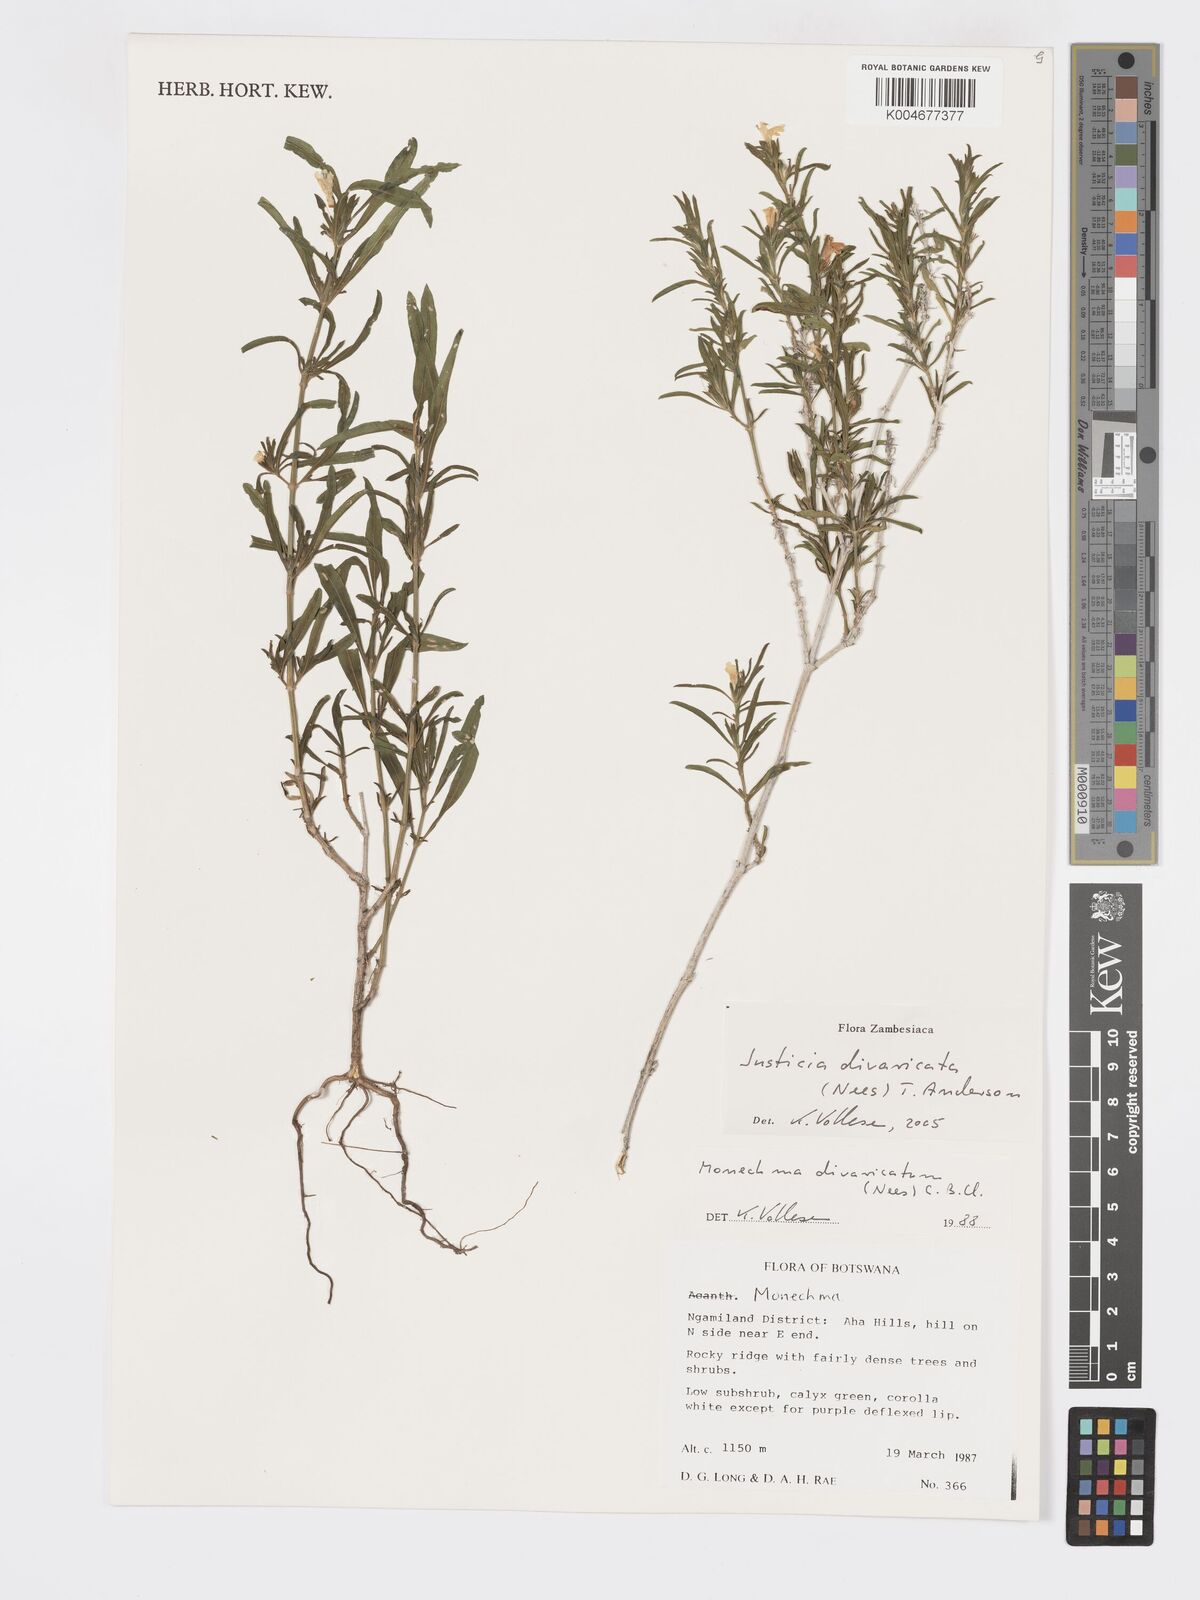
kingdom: Plantae
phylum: Tracheophyta
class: Magnoliopsida
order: Lamiales
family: Acanthaceae
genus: Pogonospermum
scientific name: Pogonospermum
